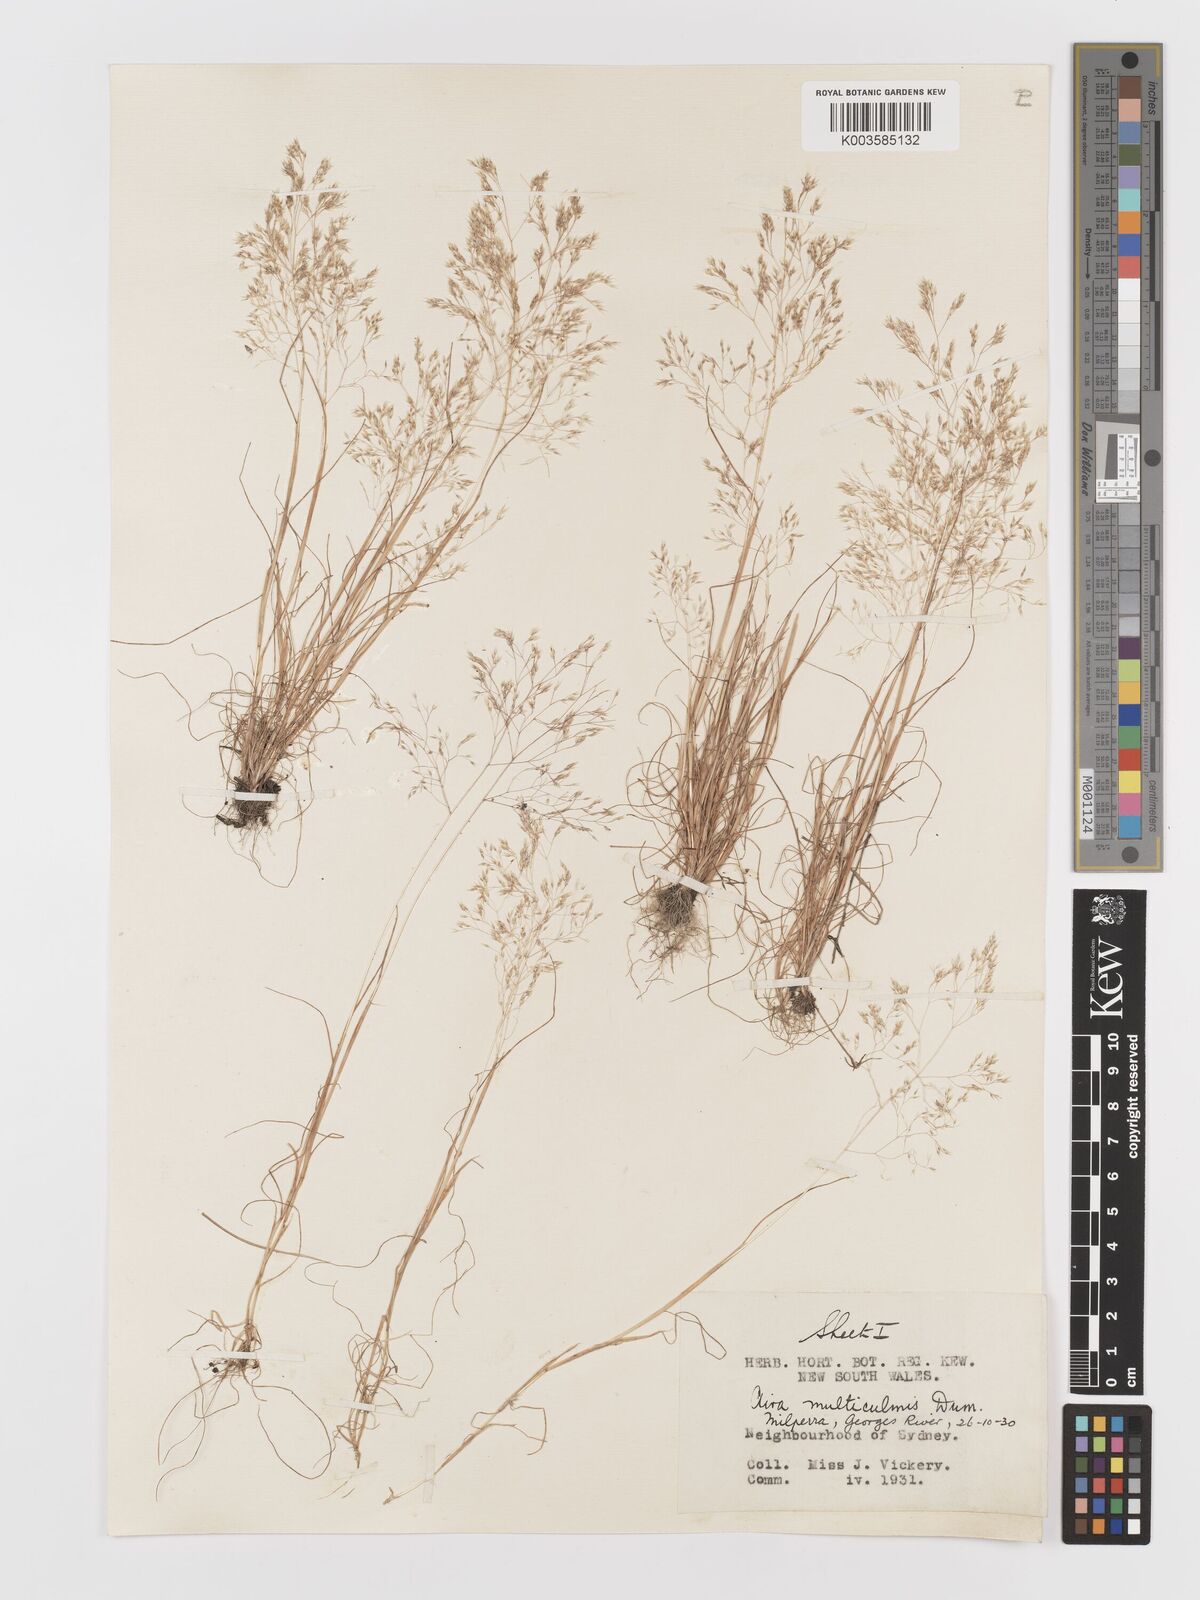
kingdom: Plantae
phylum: Tracheophyta
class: Liliopsida
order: Poales
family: Poaceae
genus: Aira
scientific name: Aira cupaniana
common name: Silver hairgrass
